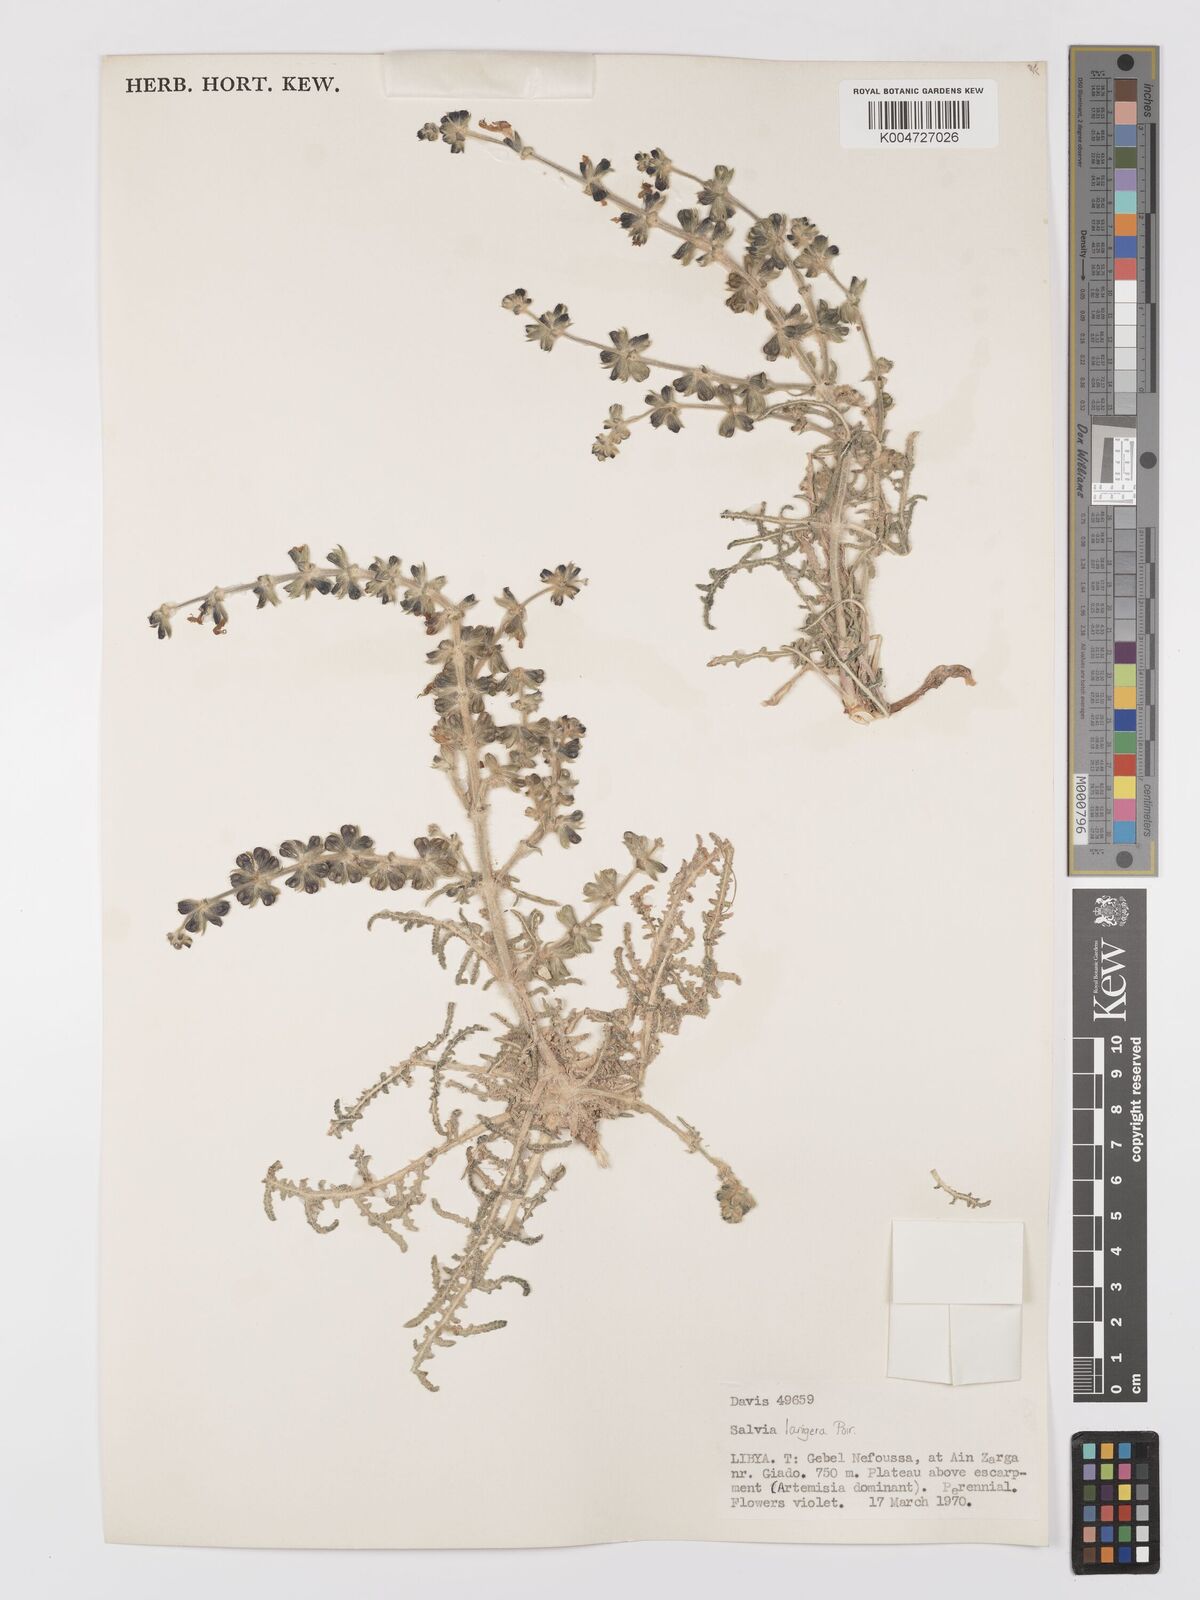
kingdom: Plantae
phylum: Tracheophyta
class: Magnoliopsida
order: Lamiales
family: Lamiaceae
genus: Salvia
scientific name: Salvia lanigera
